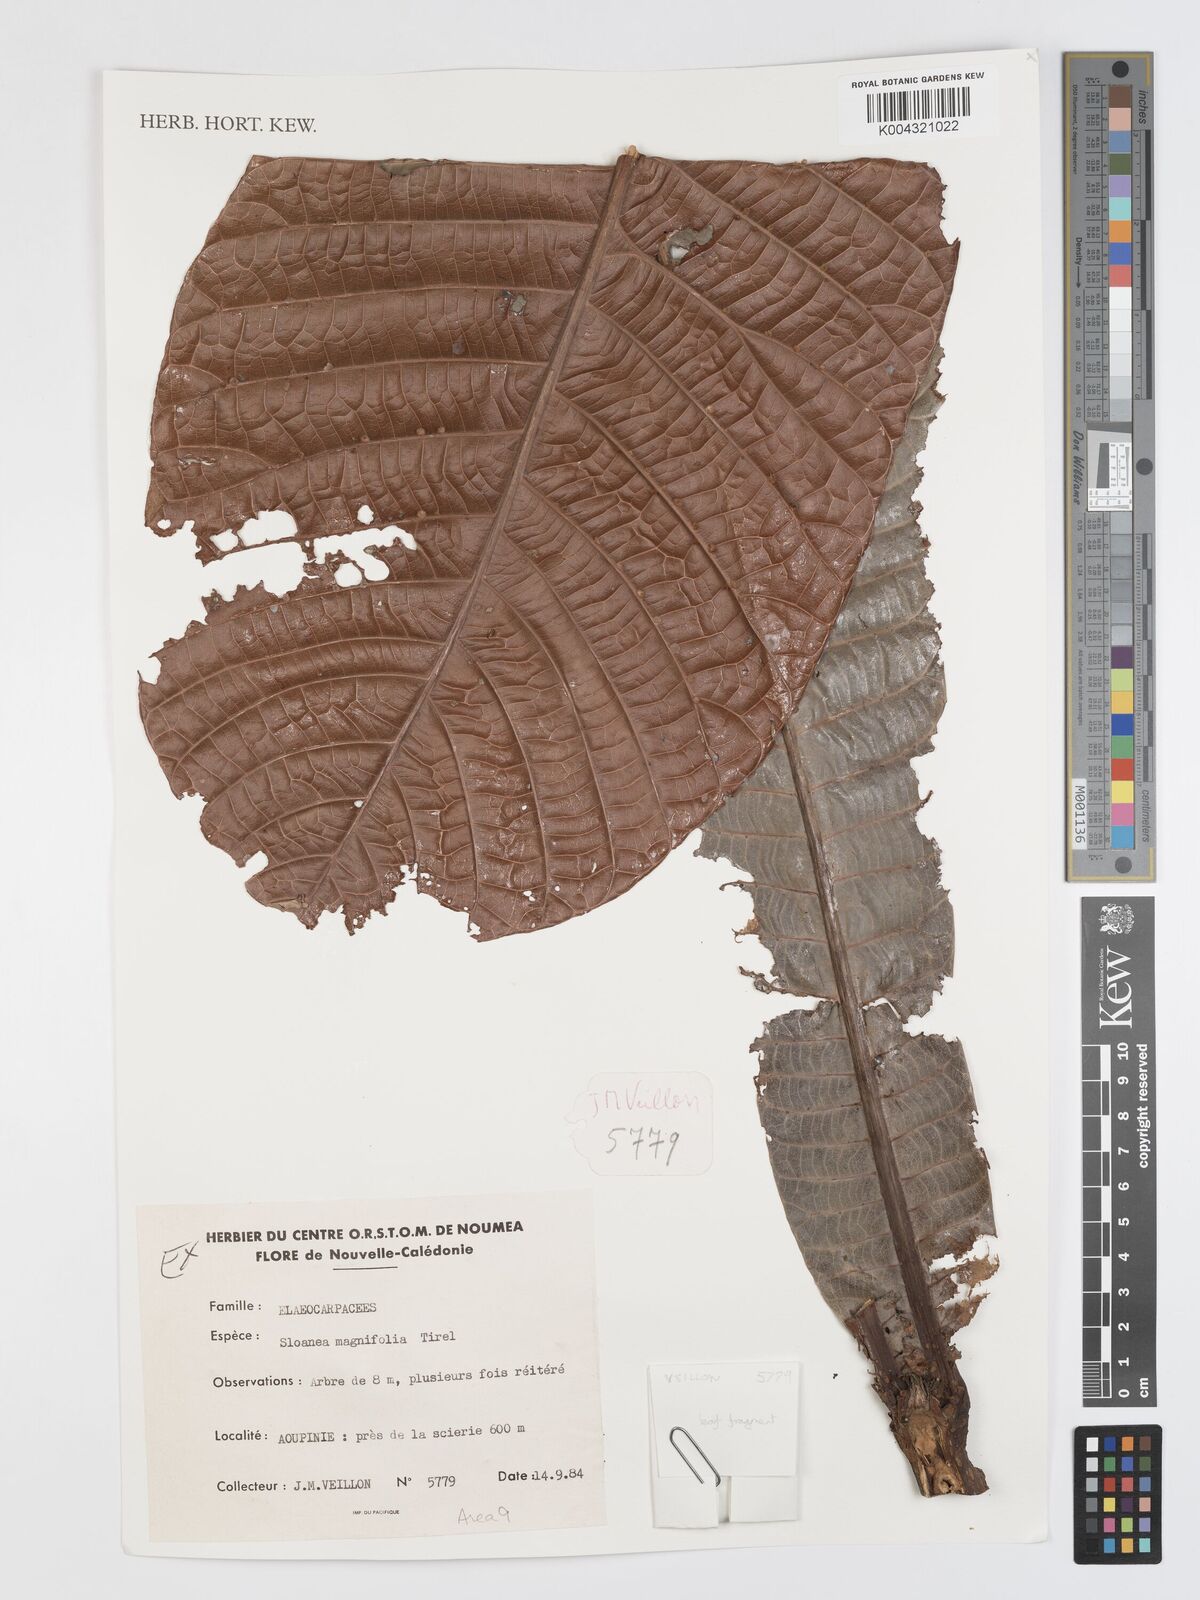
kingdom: Plantae
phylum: Tracheophyta
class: Magnoliopsida
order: Oxalidales
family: Elaeocarpaceae
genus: Sloanea
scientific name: Sloanea magnifolia
